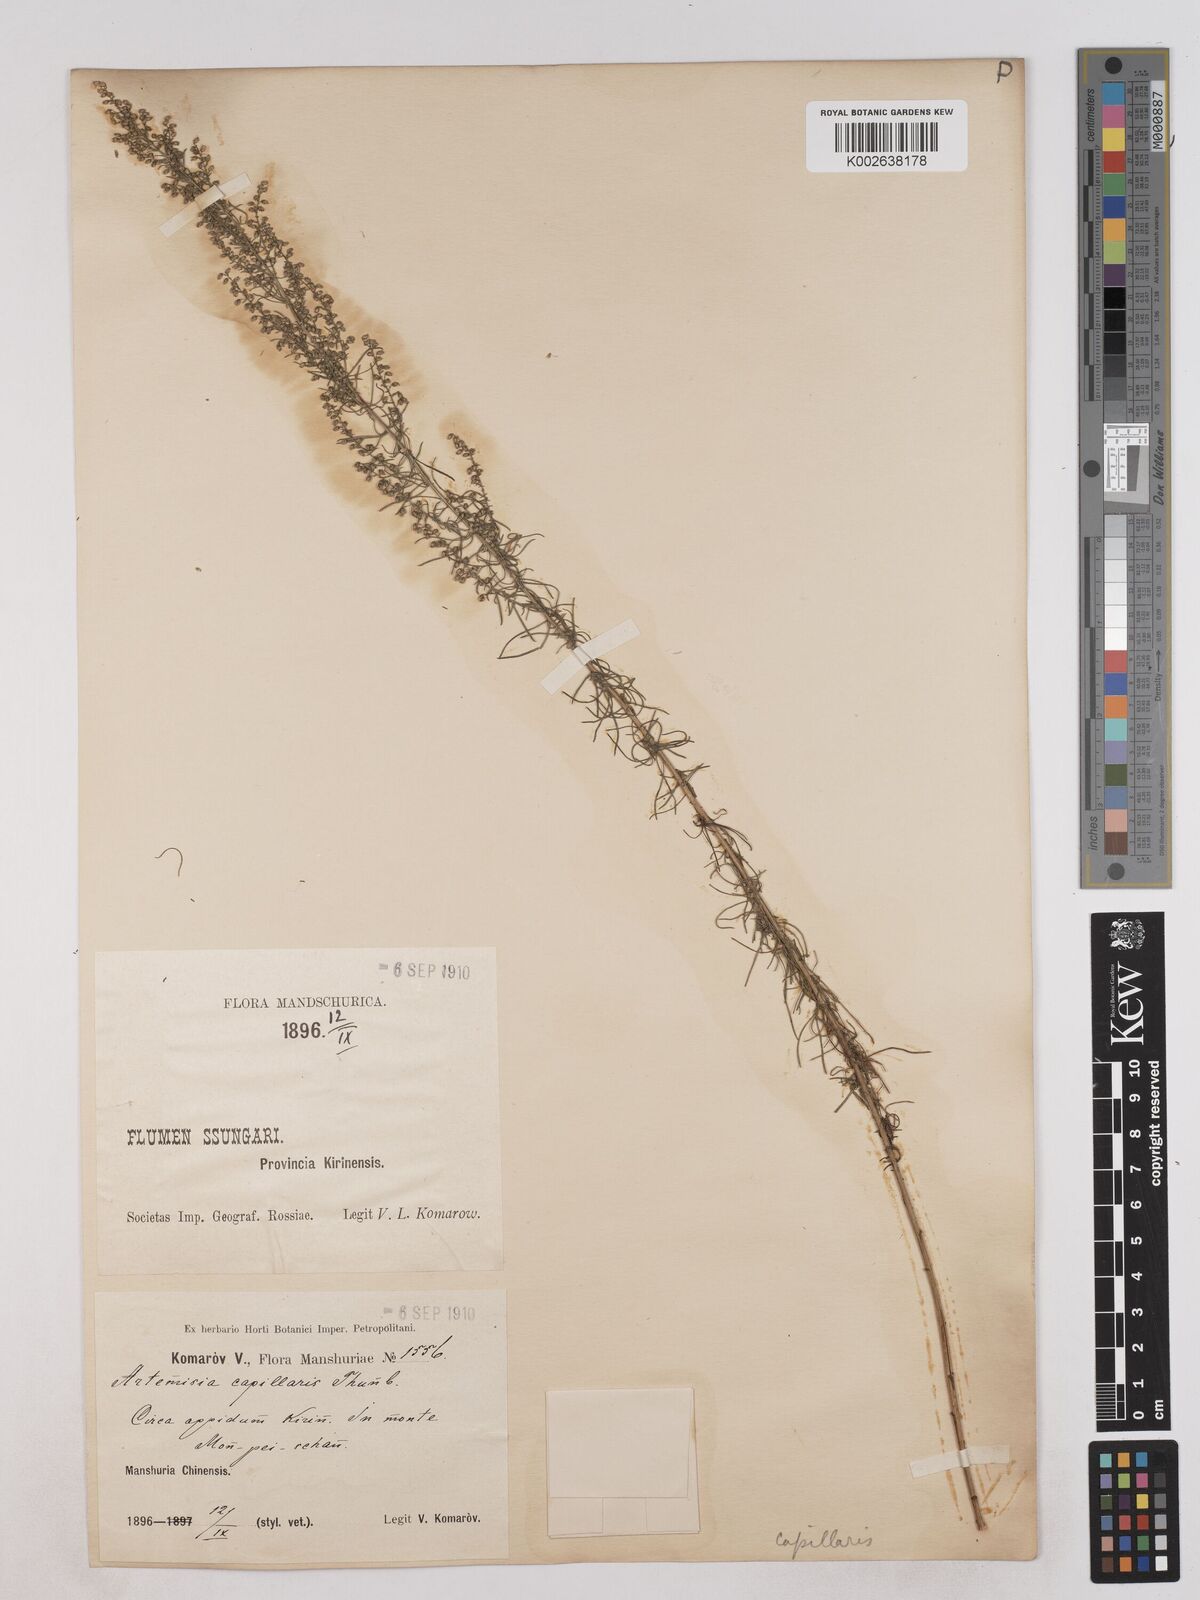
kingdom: Plantae
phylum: Tracheophyta
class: Magnoliopsida
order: Asterales
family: Asteraceae
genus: Artemisia
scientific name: Artemisia capillaris
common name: Yin-chen wormwood
